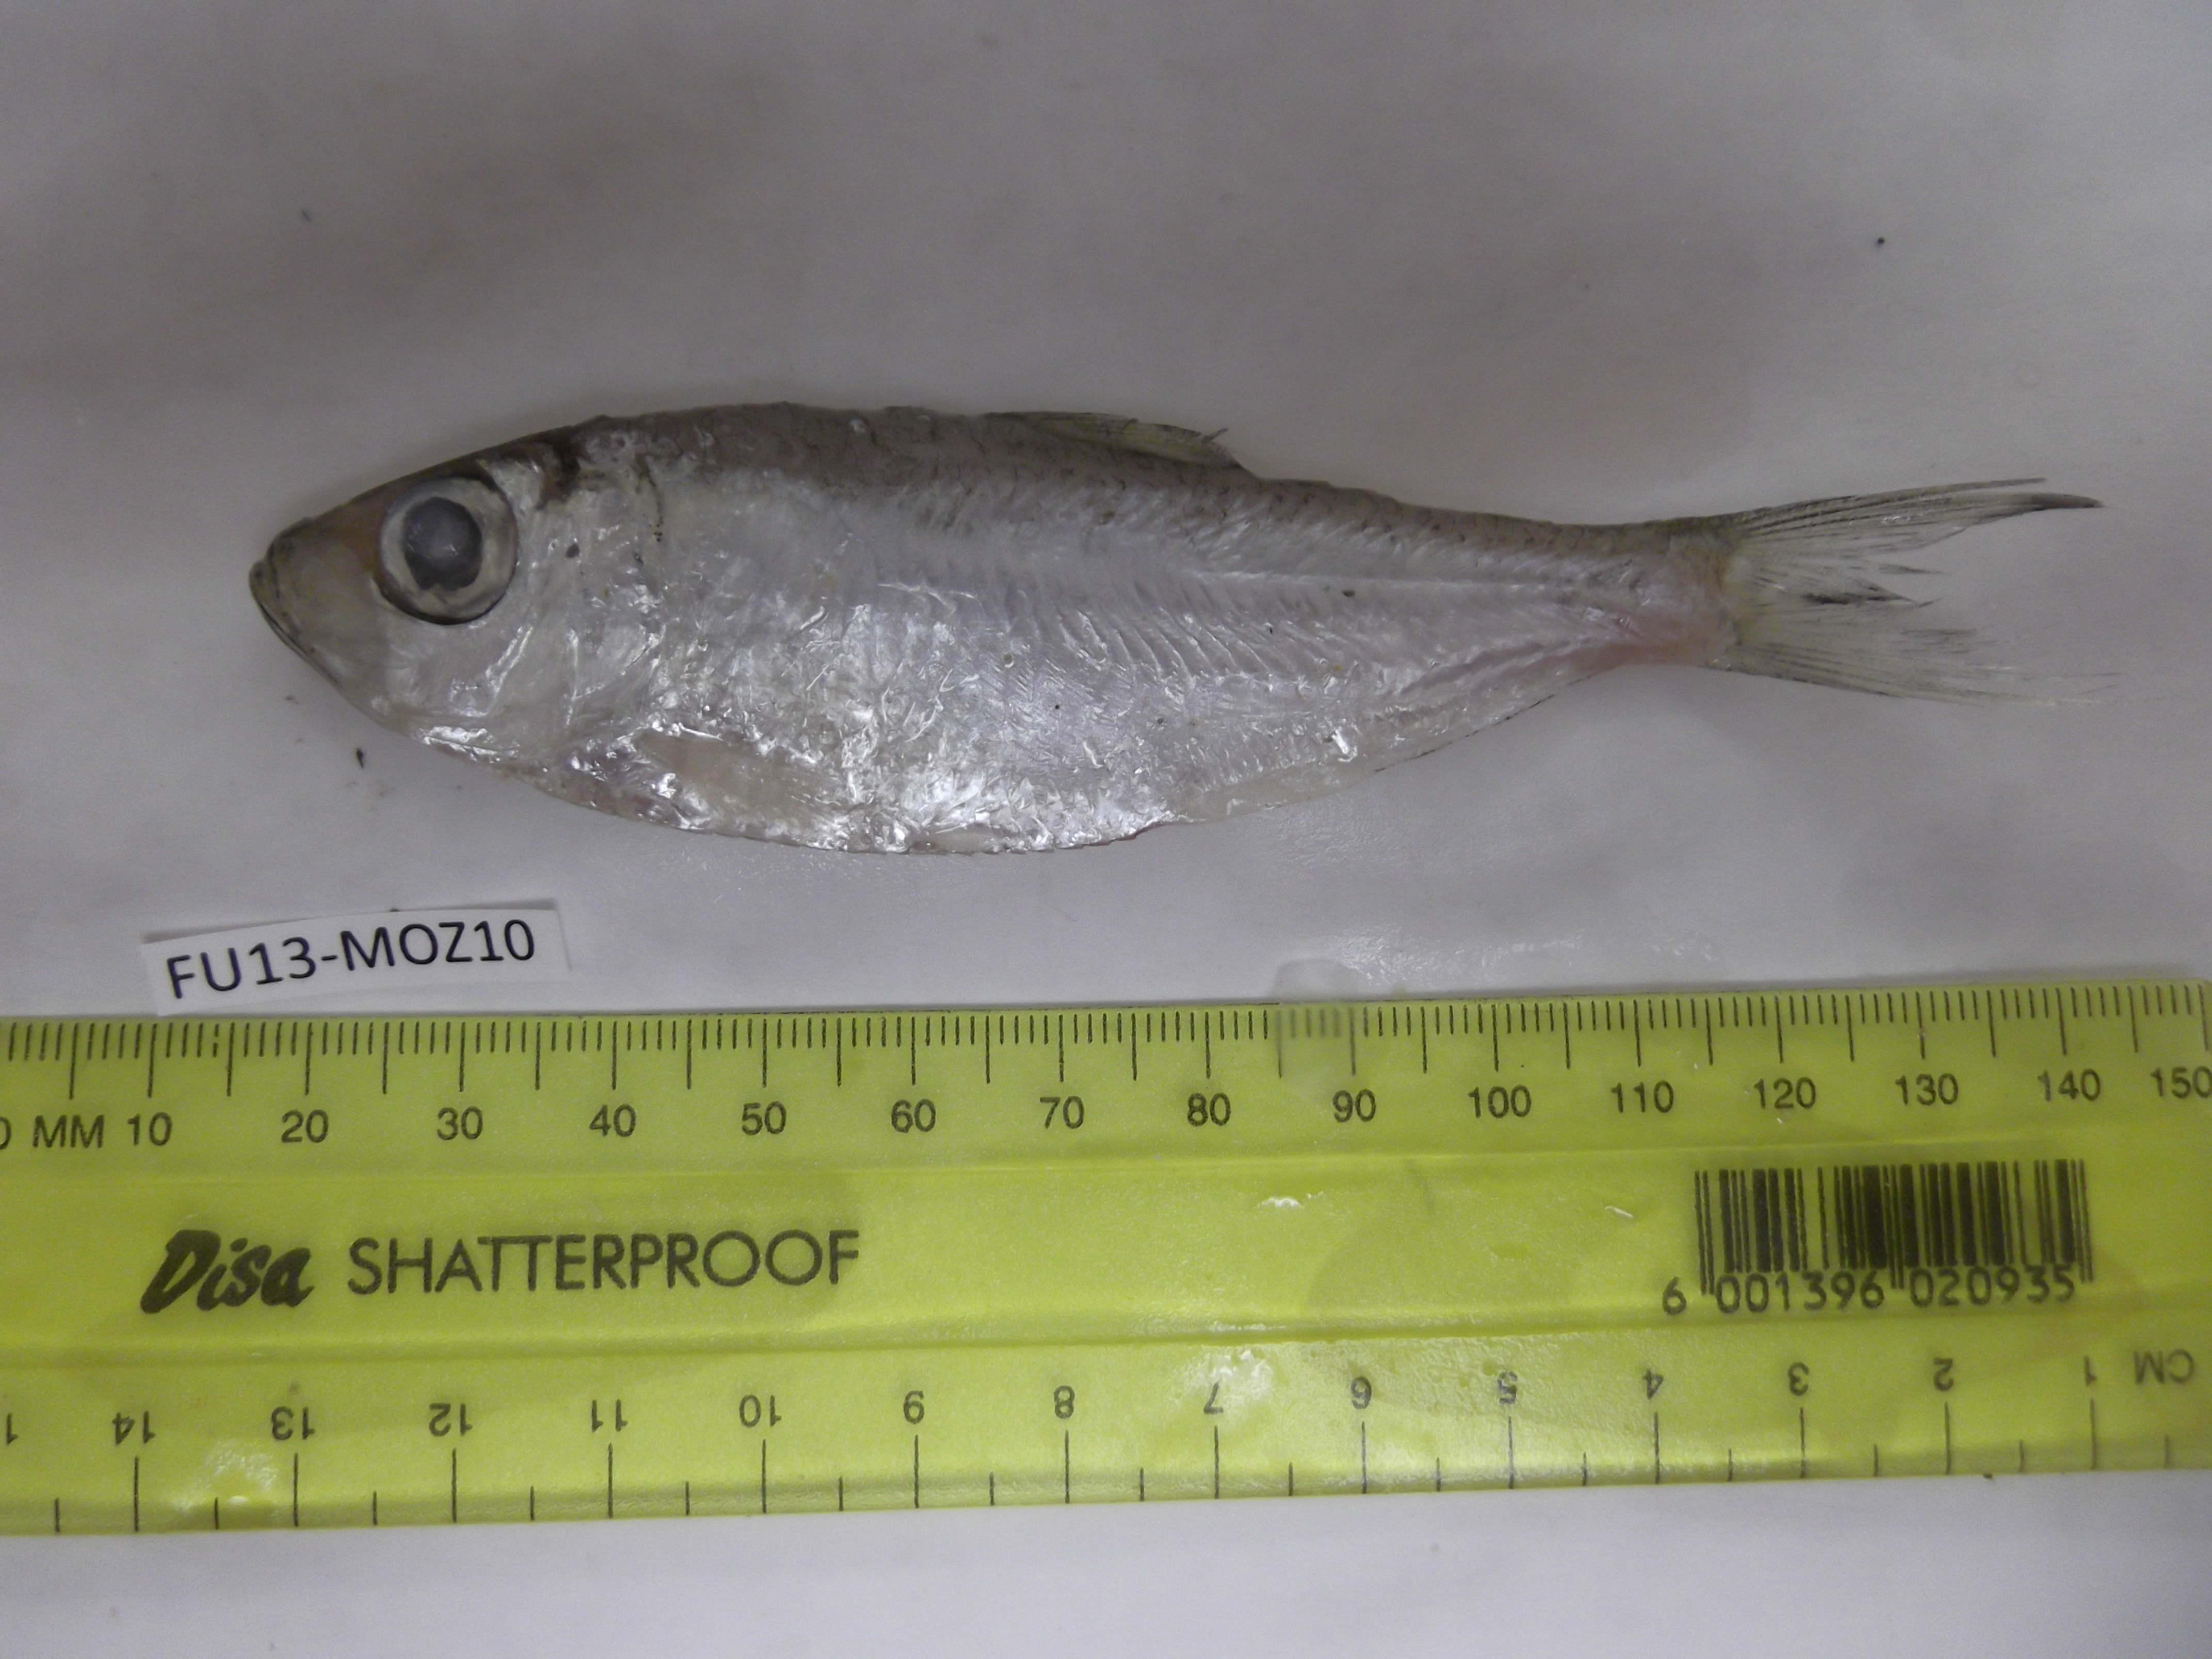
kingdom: Animalia
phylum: Chordata
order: Clupeiformes
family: Pristigasteridae
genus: Pellona
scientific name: Pellona ditchela
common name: Indian pellona
